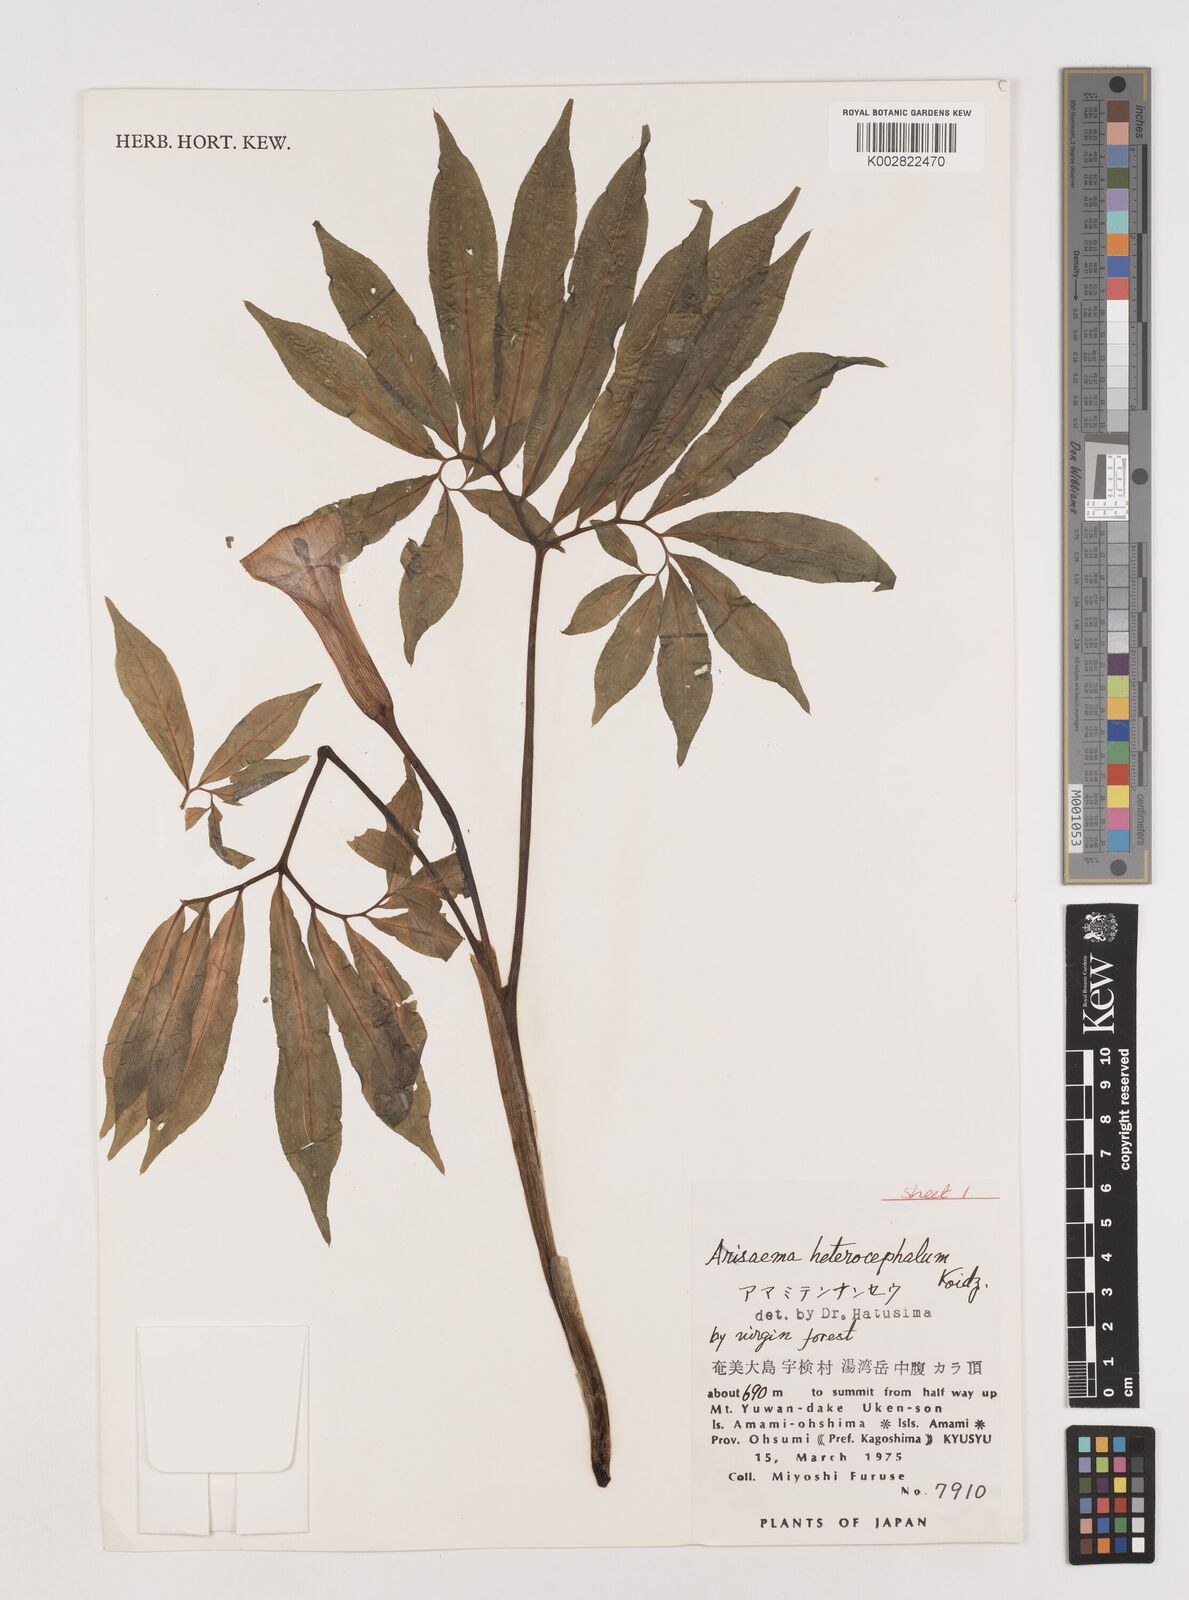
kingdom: Plantae
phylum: Tracheophyta
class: Liliopsida
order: Alismatales
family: Araceae
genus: Arisaema
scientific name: Arisaema heterocephalum
